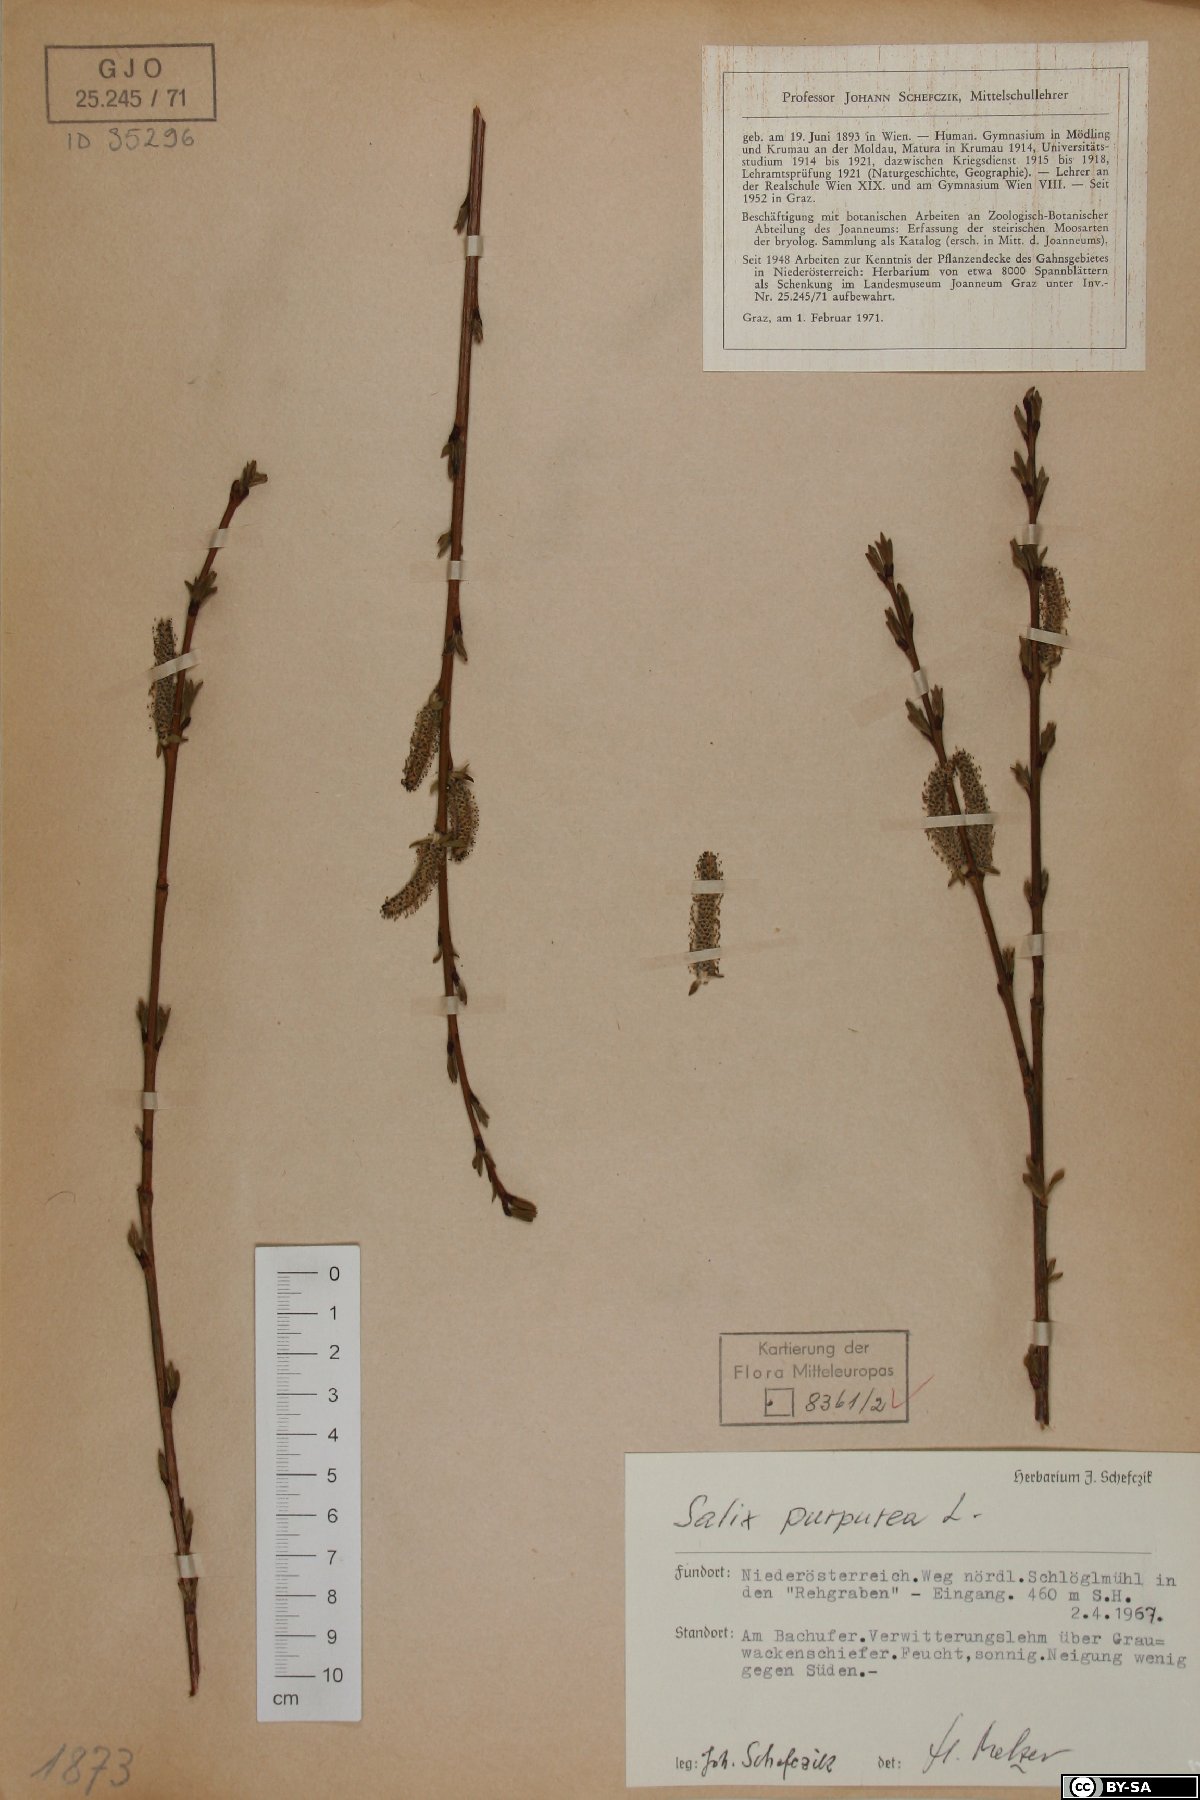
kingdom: Plantae
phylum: Tracheophyta
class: Magnoliopsida
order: Malpighiales
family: Salicaceae
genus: Salix
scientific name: Salix purpurea
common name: Purple willow
